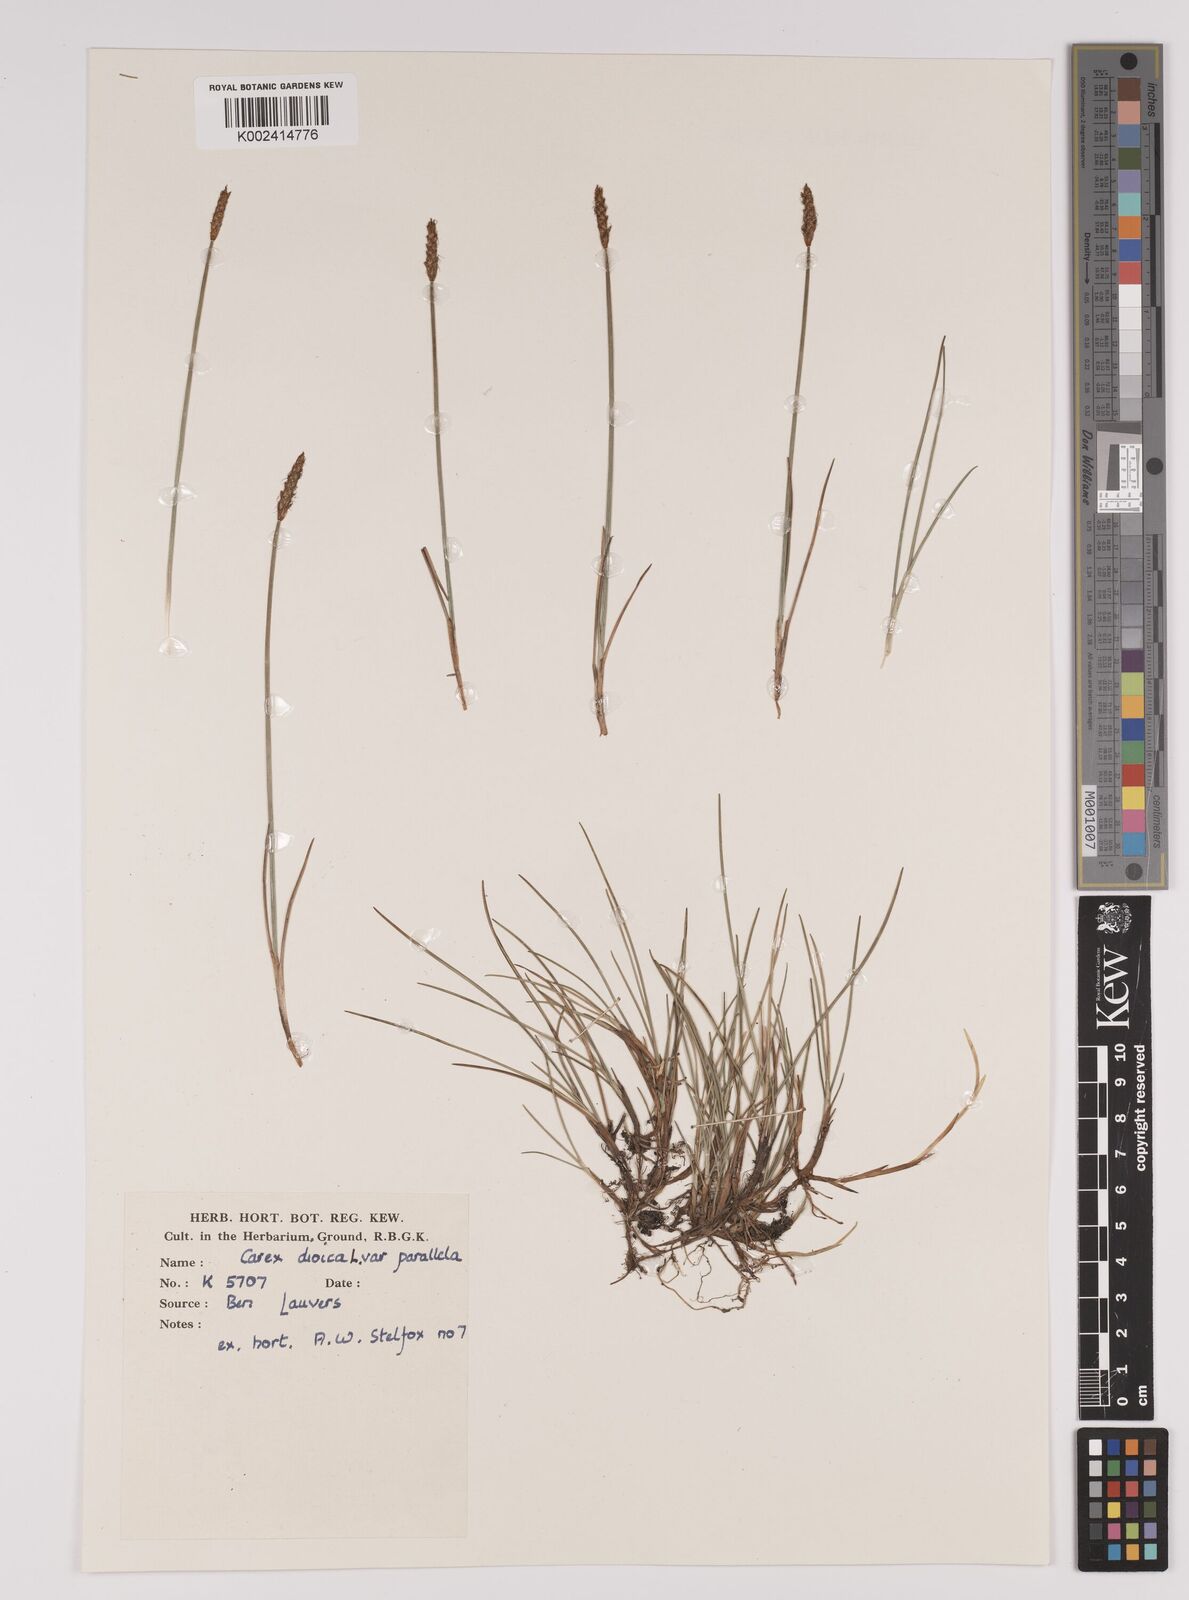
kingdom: Plantae
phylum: Tracheophyta
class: Liliopsida
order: Poales
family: Cyperaceae
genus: Carex
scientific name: Carex dioica
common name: Dioecious sedge
